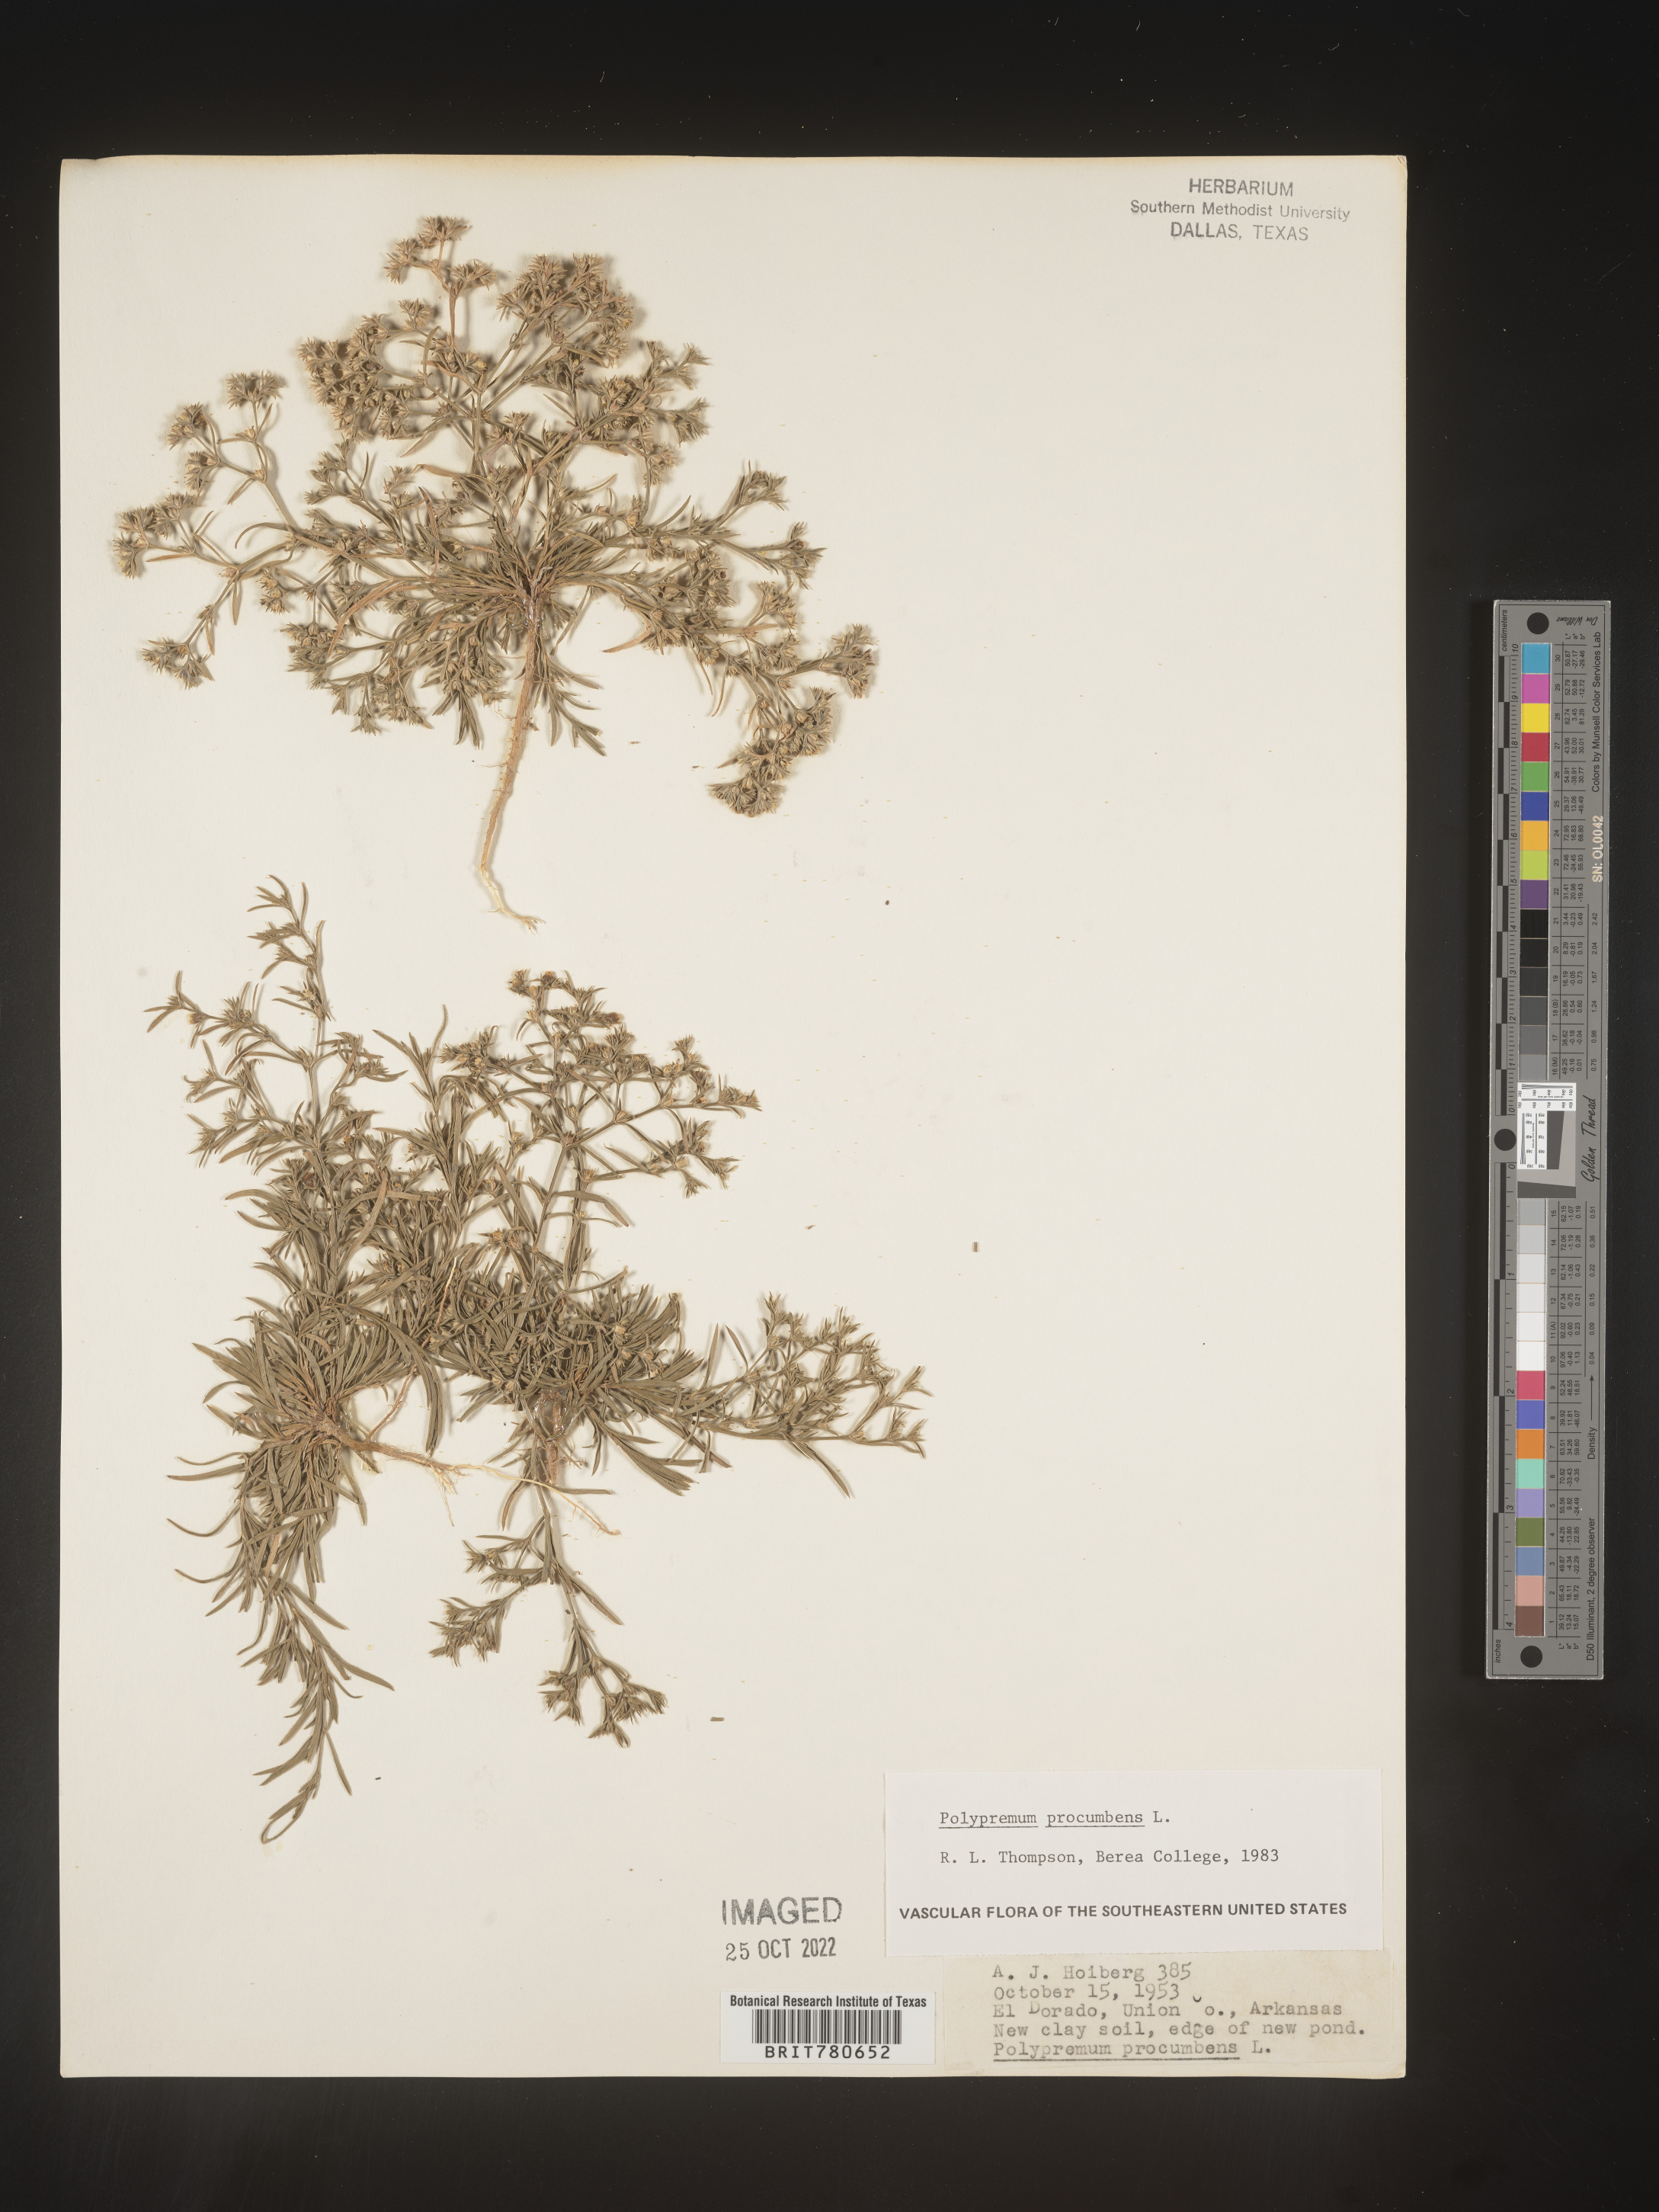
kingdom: Plantae
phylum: Tracheophyta
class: Magnoliopsida
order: Lamiales
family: Tetrachondraceae
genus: Polypremum
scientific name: Polypremum procumbens
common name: Juniper-leaf
